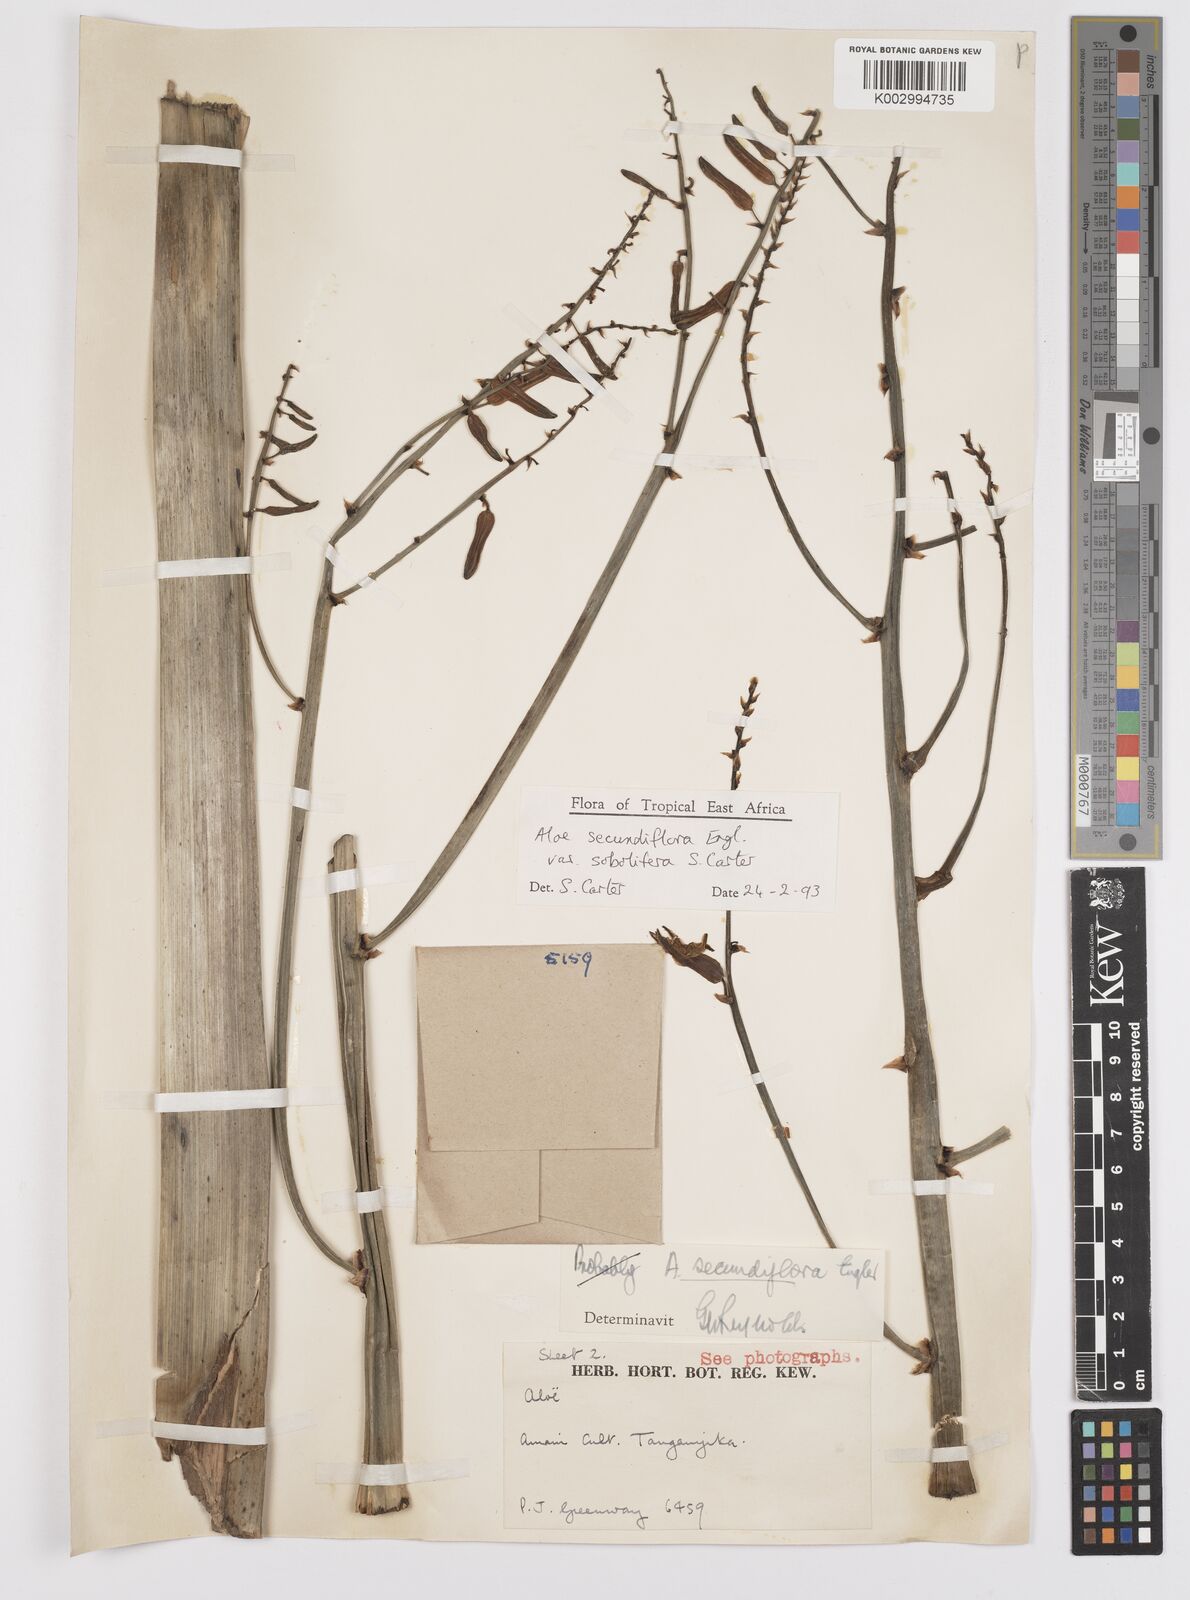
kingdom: Plantae
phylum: Tracheophyta
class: Liliopsida
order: Asparagales
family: Asphodelaceae
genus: Aloe
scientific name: Aloe sobolifera
